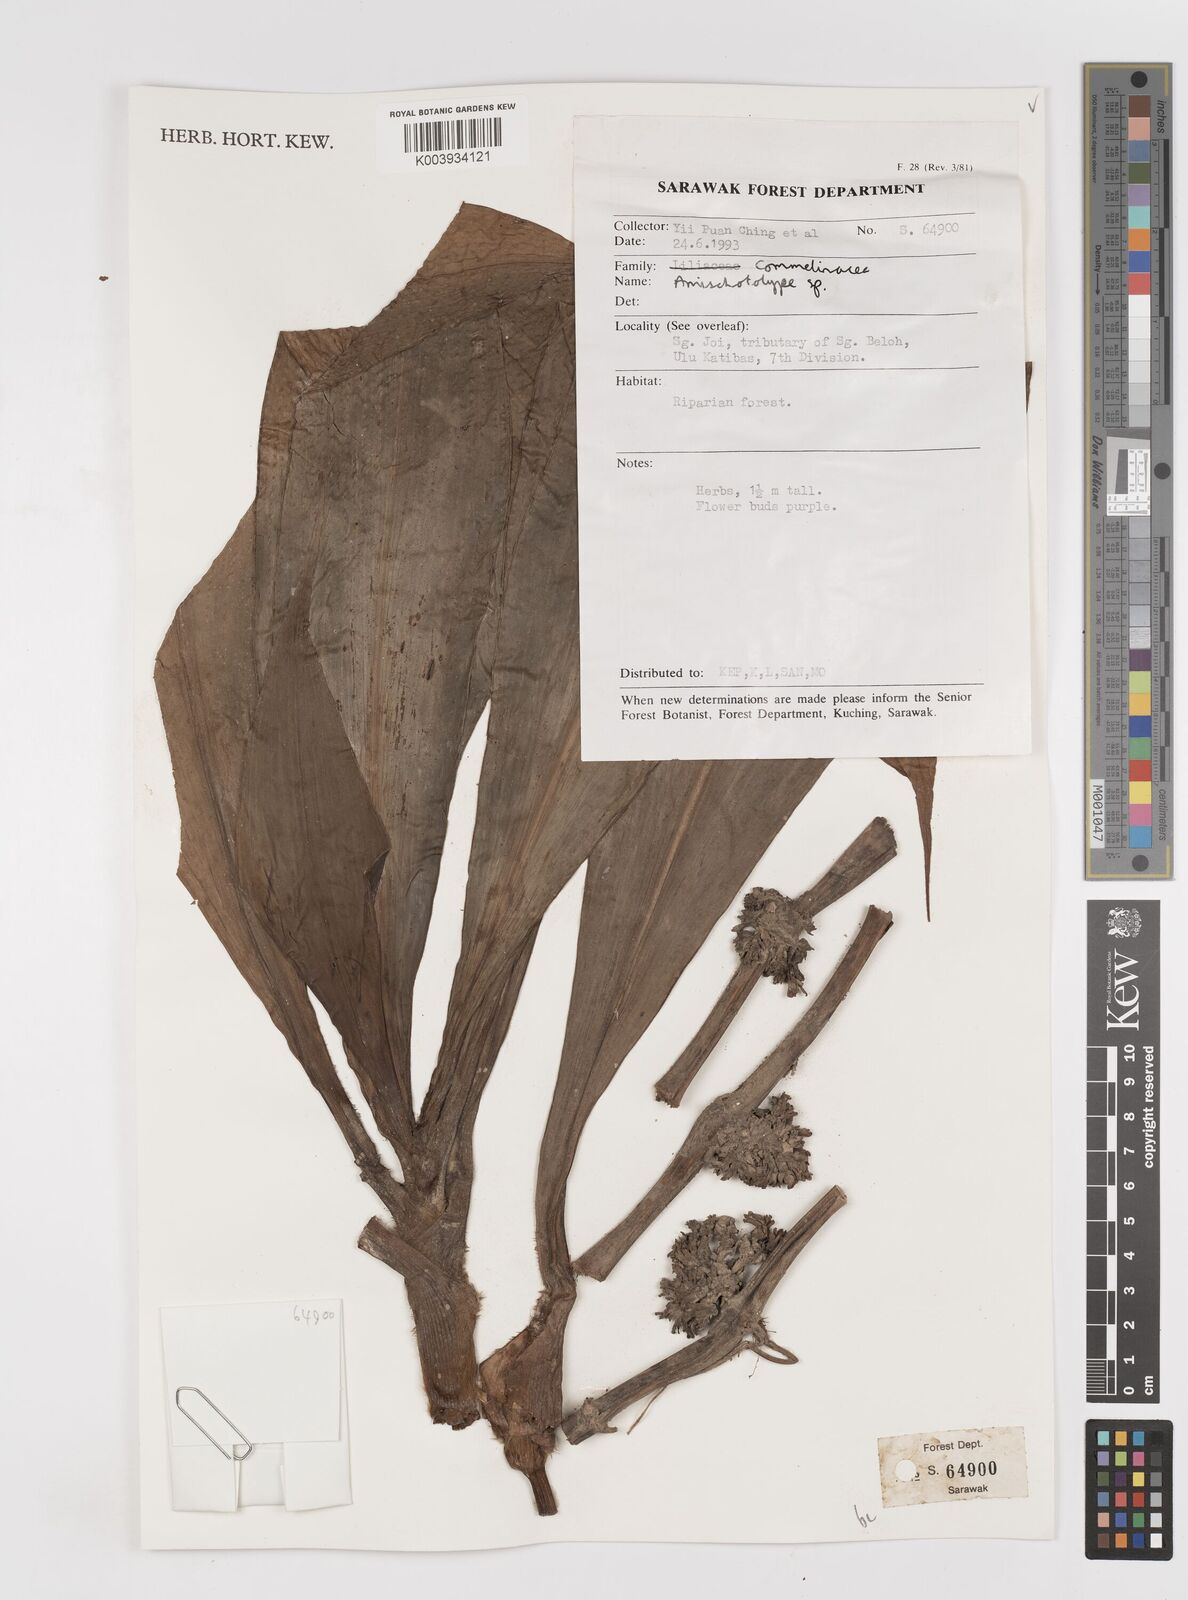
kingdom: Plantae
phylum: Tracheophyta
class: Liliopsida
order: Commelinales
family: Commelinaceae
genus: Amischotolype
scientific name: Amischotolype
